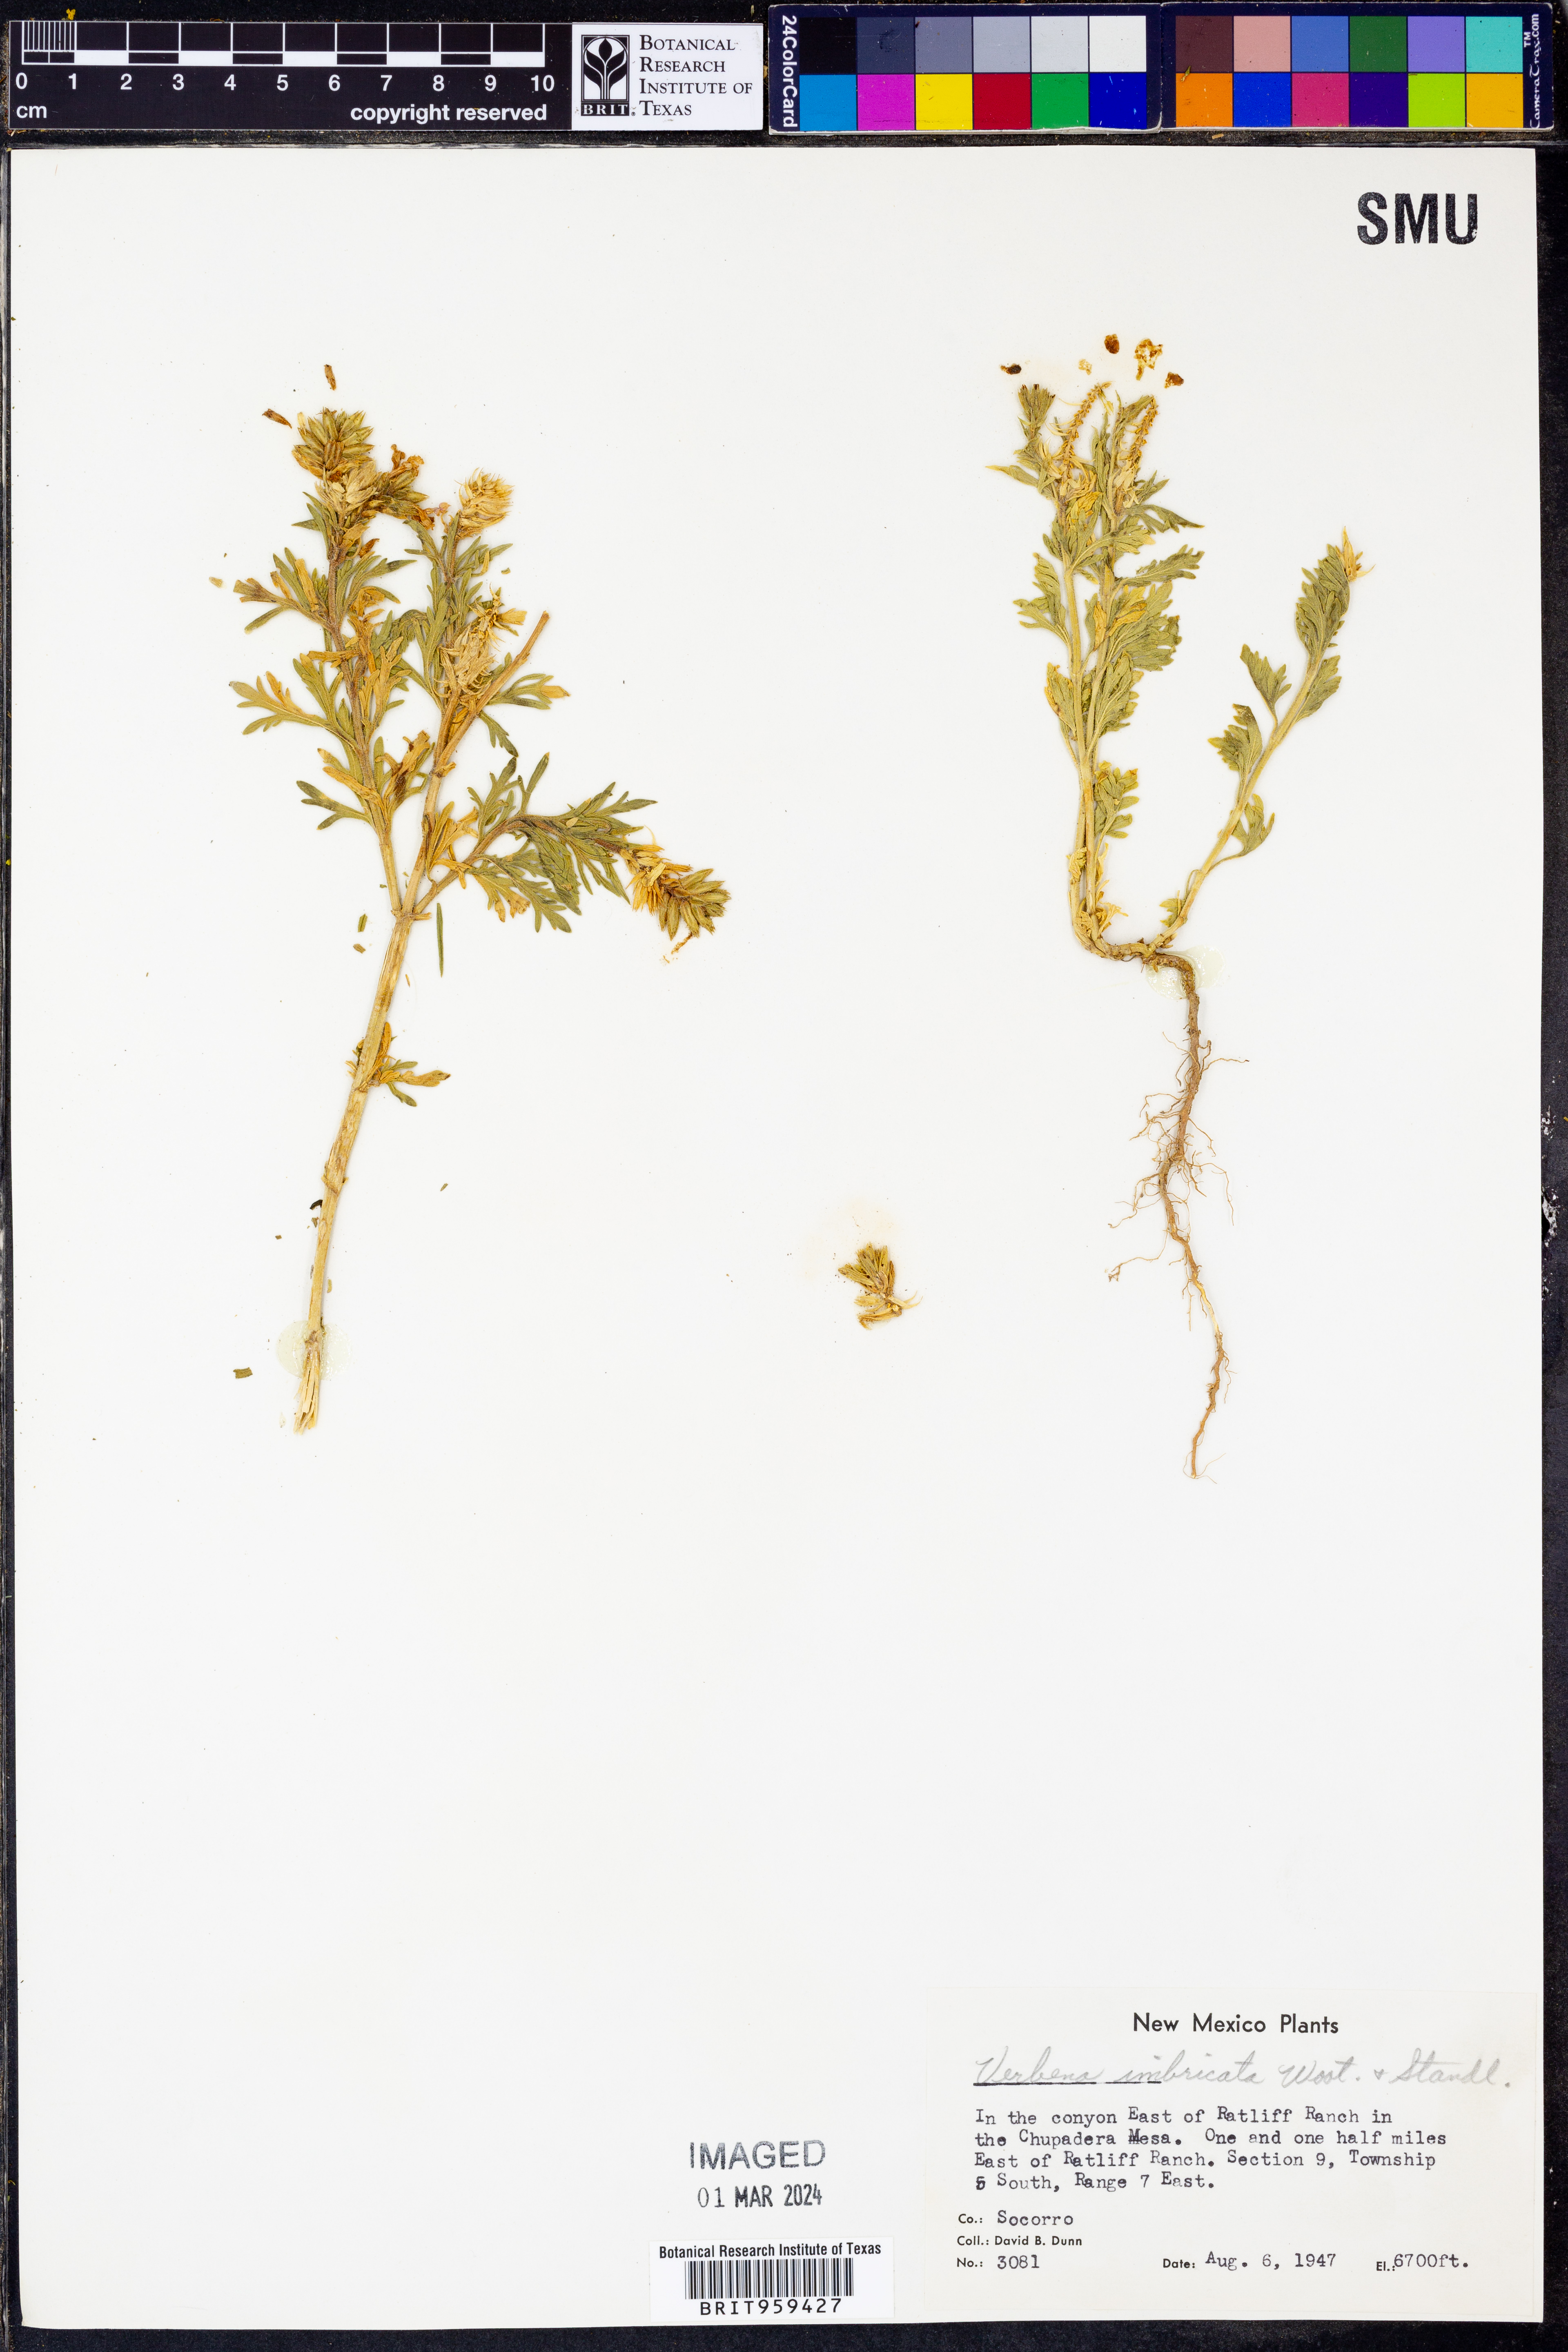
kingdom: Plantae
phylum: Tracheophyta
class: Magnoliopsida
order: Lamiales
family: Verbenaceae
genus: Verbena
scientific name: Verbena bipinnatifida
